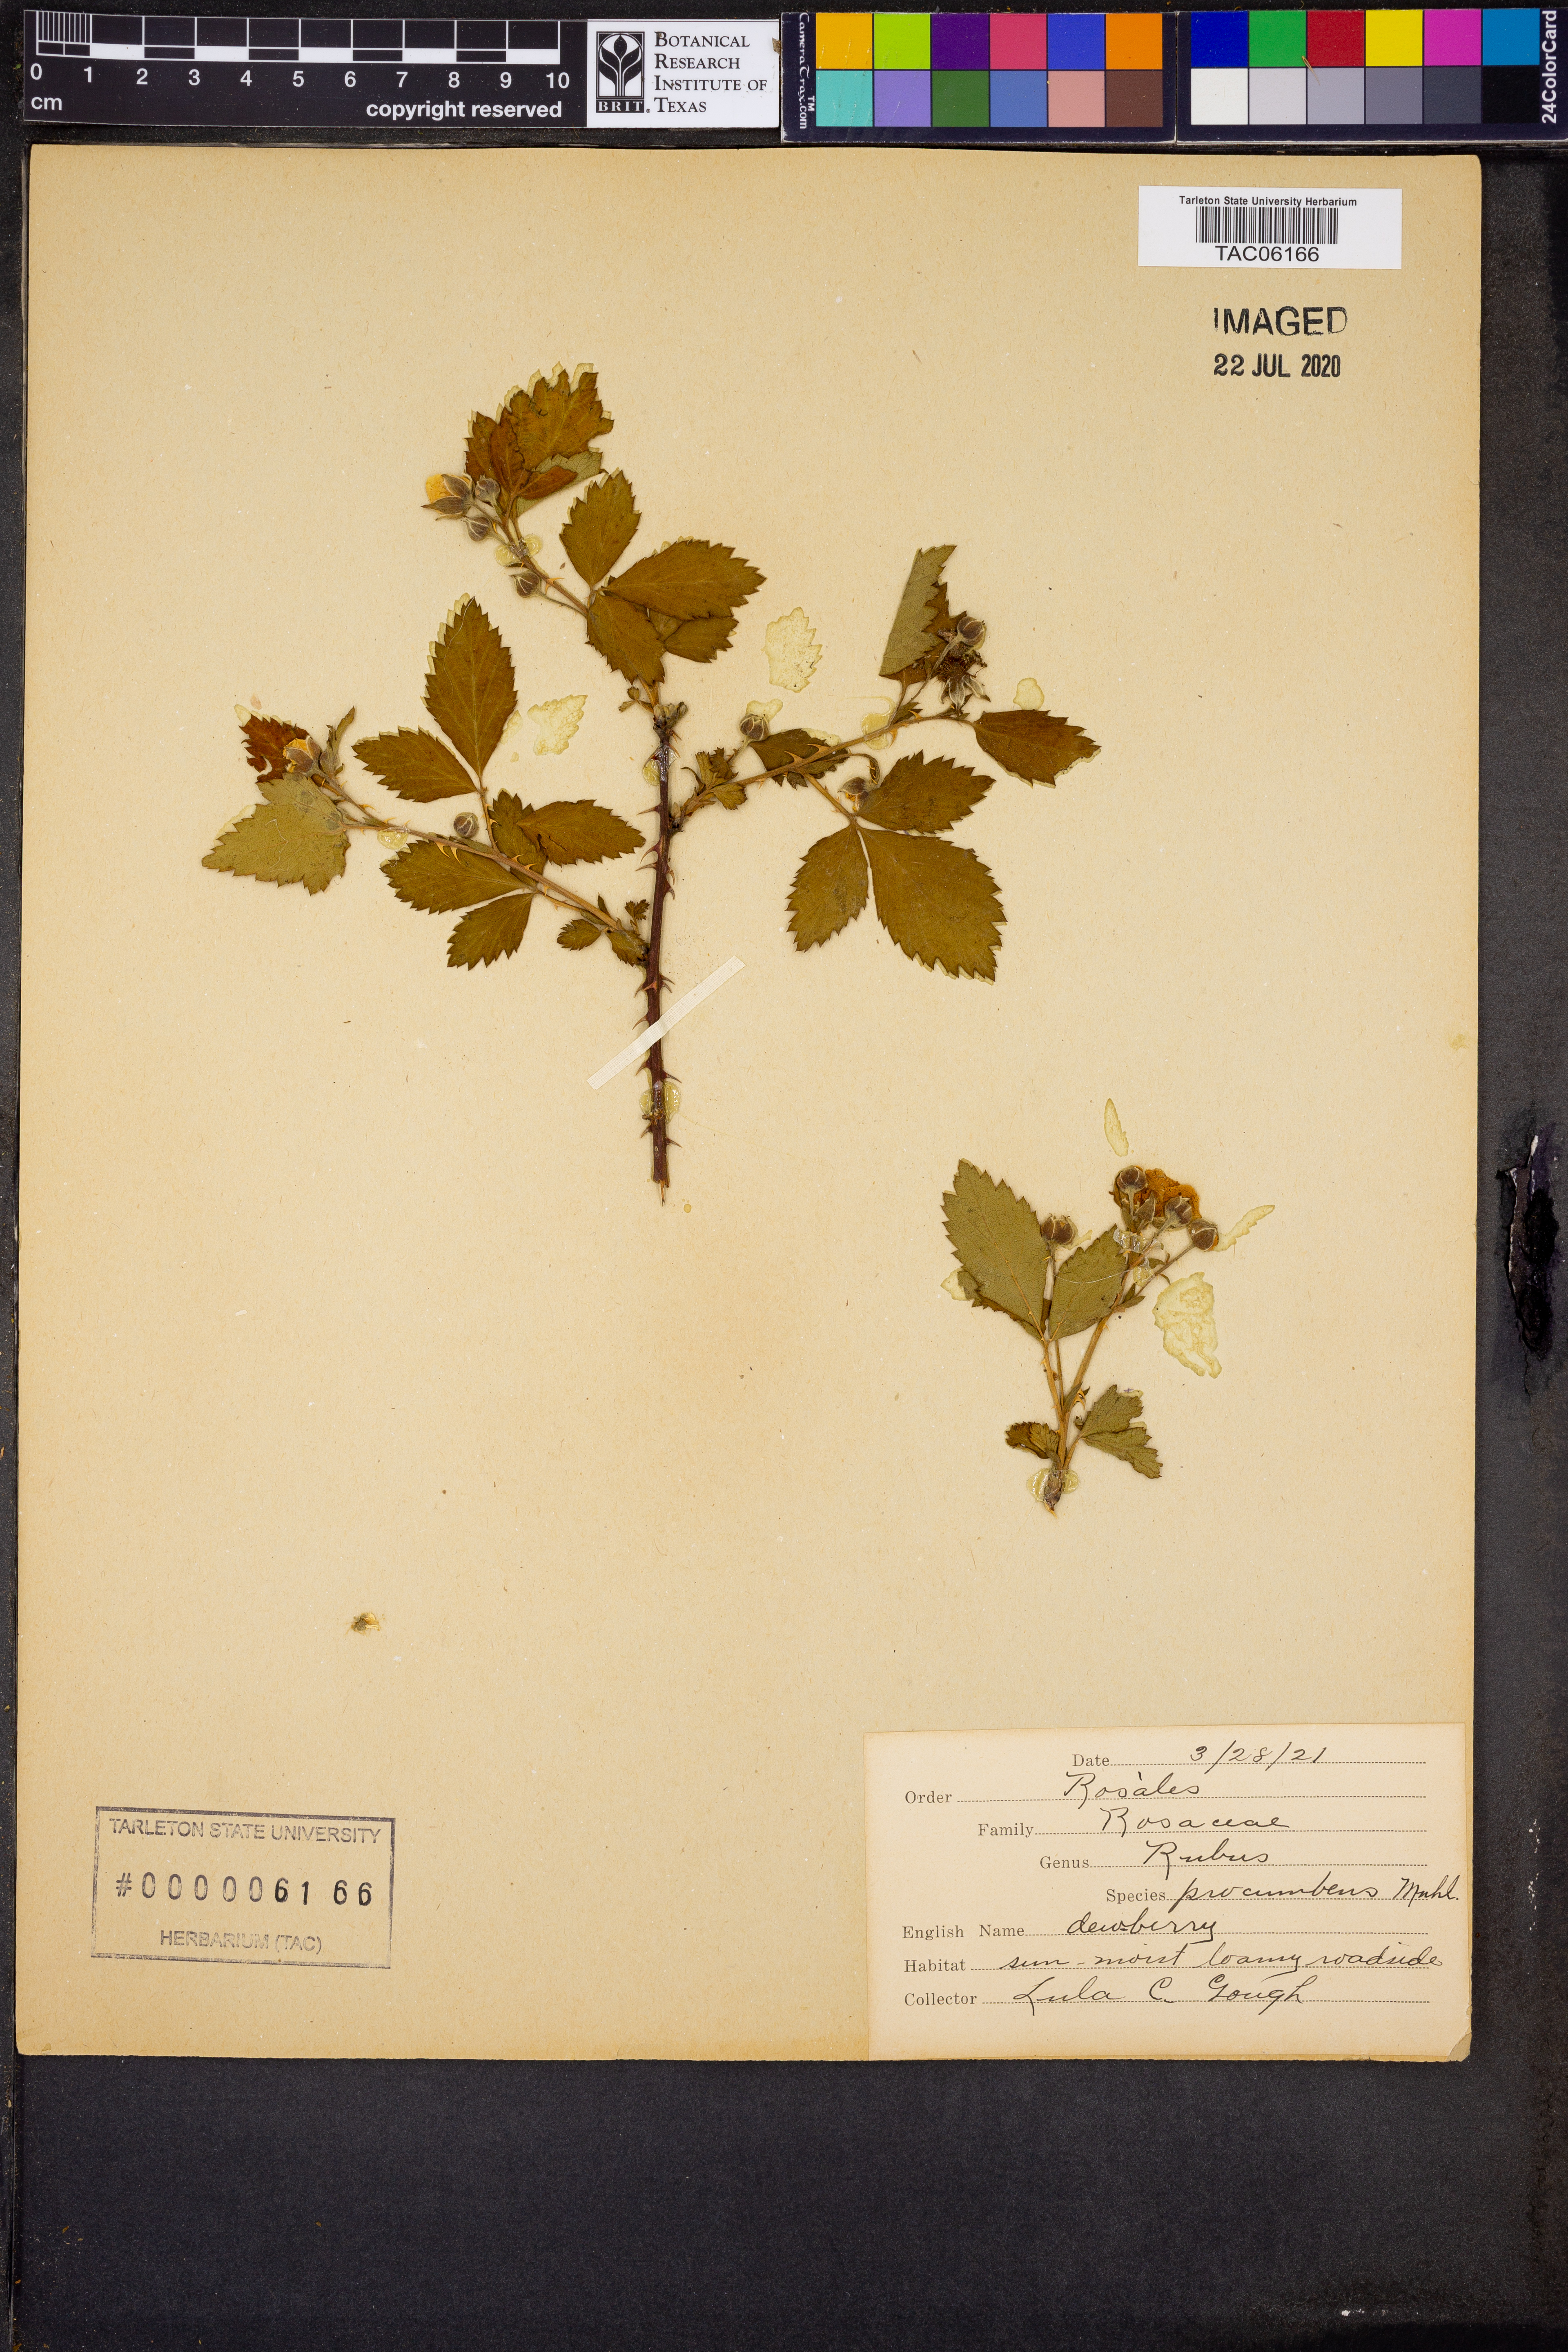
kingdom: Plantae
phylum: Tracheophyta
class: Magnoliopsida
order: Rosales
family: Rosaceae
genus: Rubus
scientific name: Rubus flagellaris
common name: American dewberry
